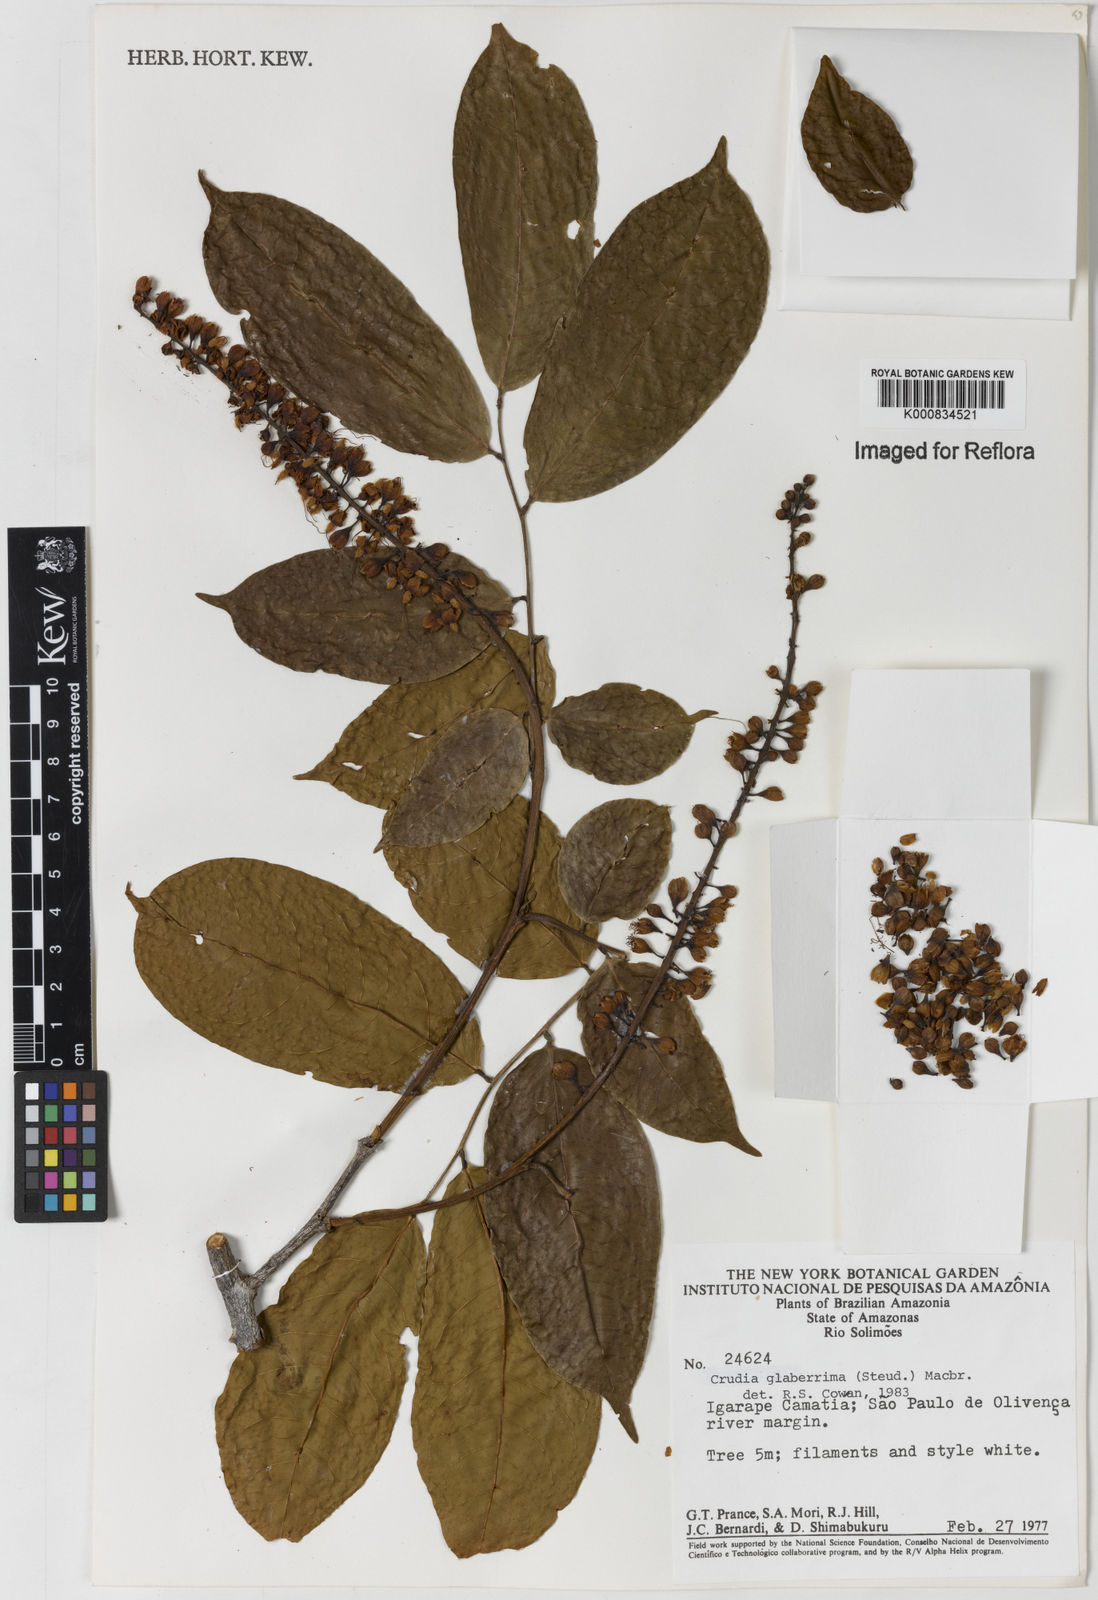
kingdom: Plantae
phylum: Tracheophyta
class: Magnoliopsida
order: Fabales
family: Fabaceae
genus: Crudia
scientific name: Crudia glaberrima
